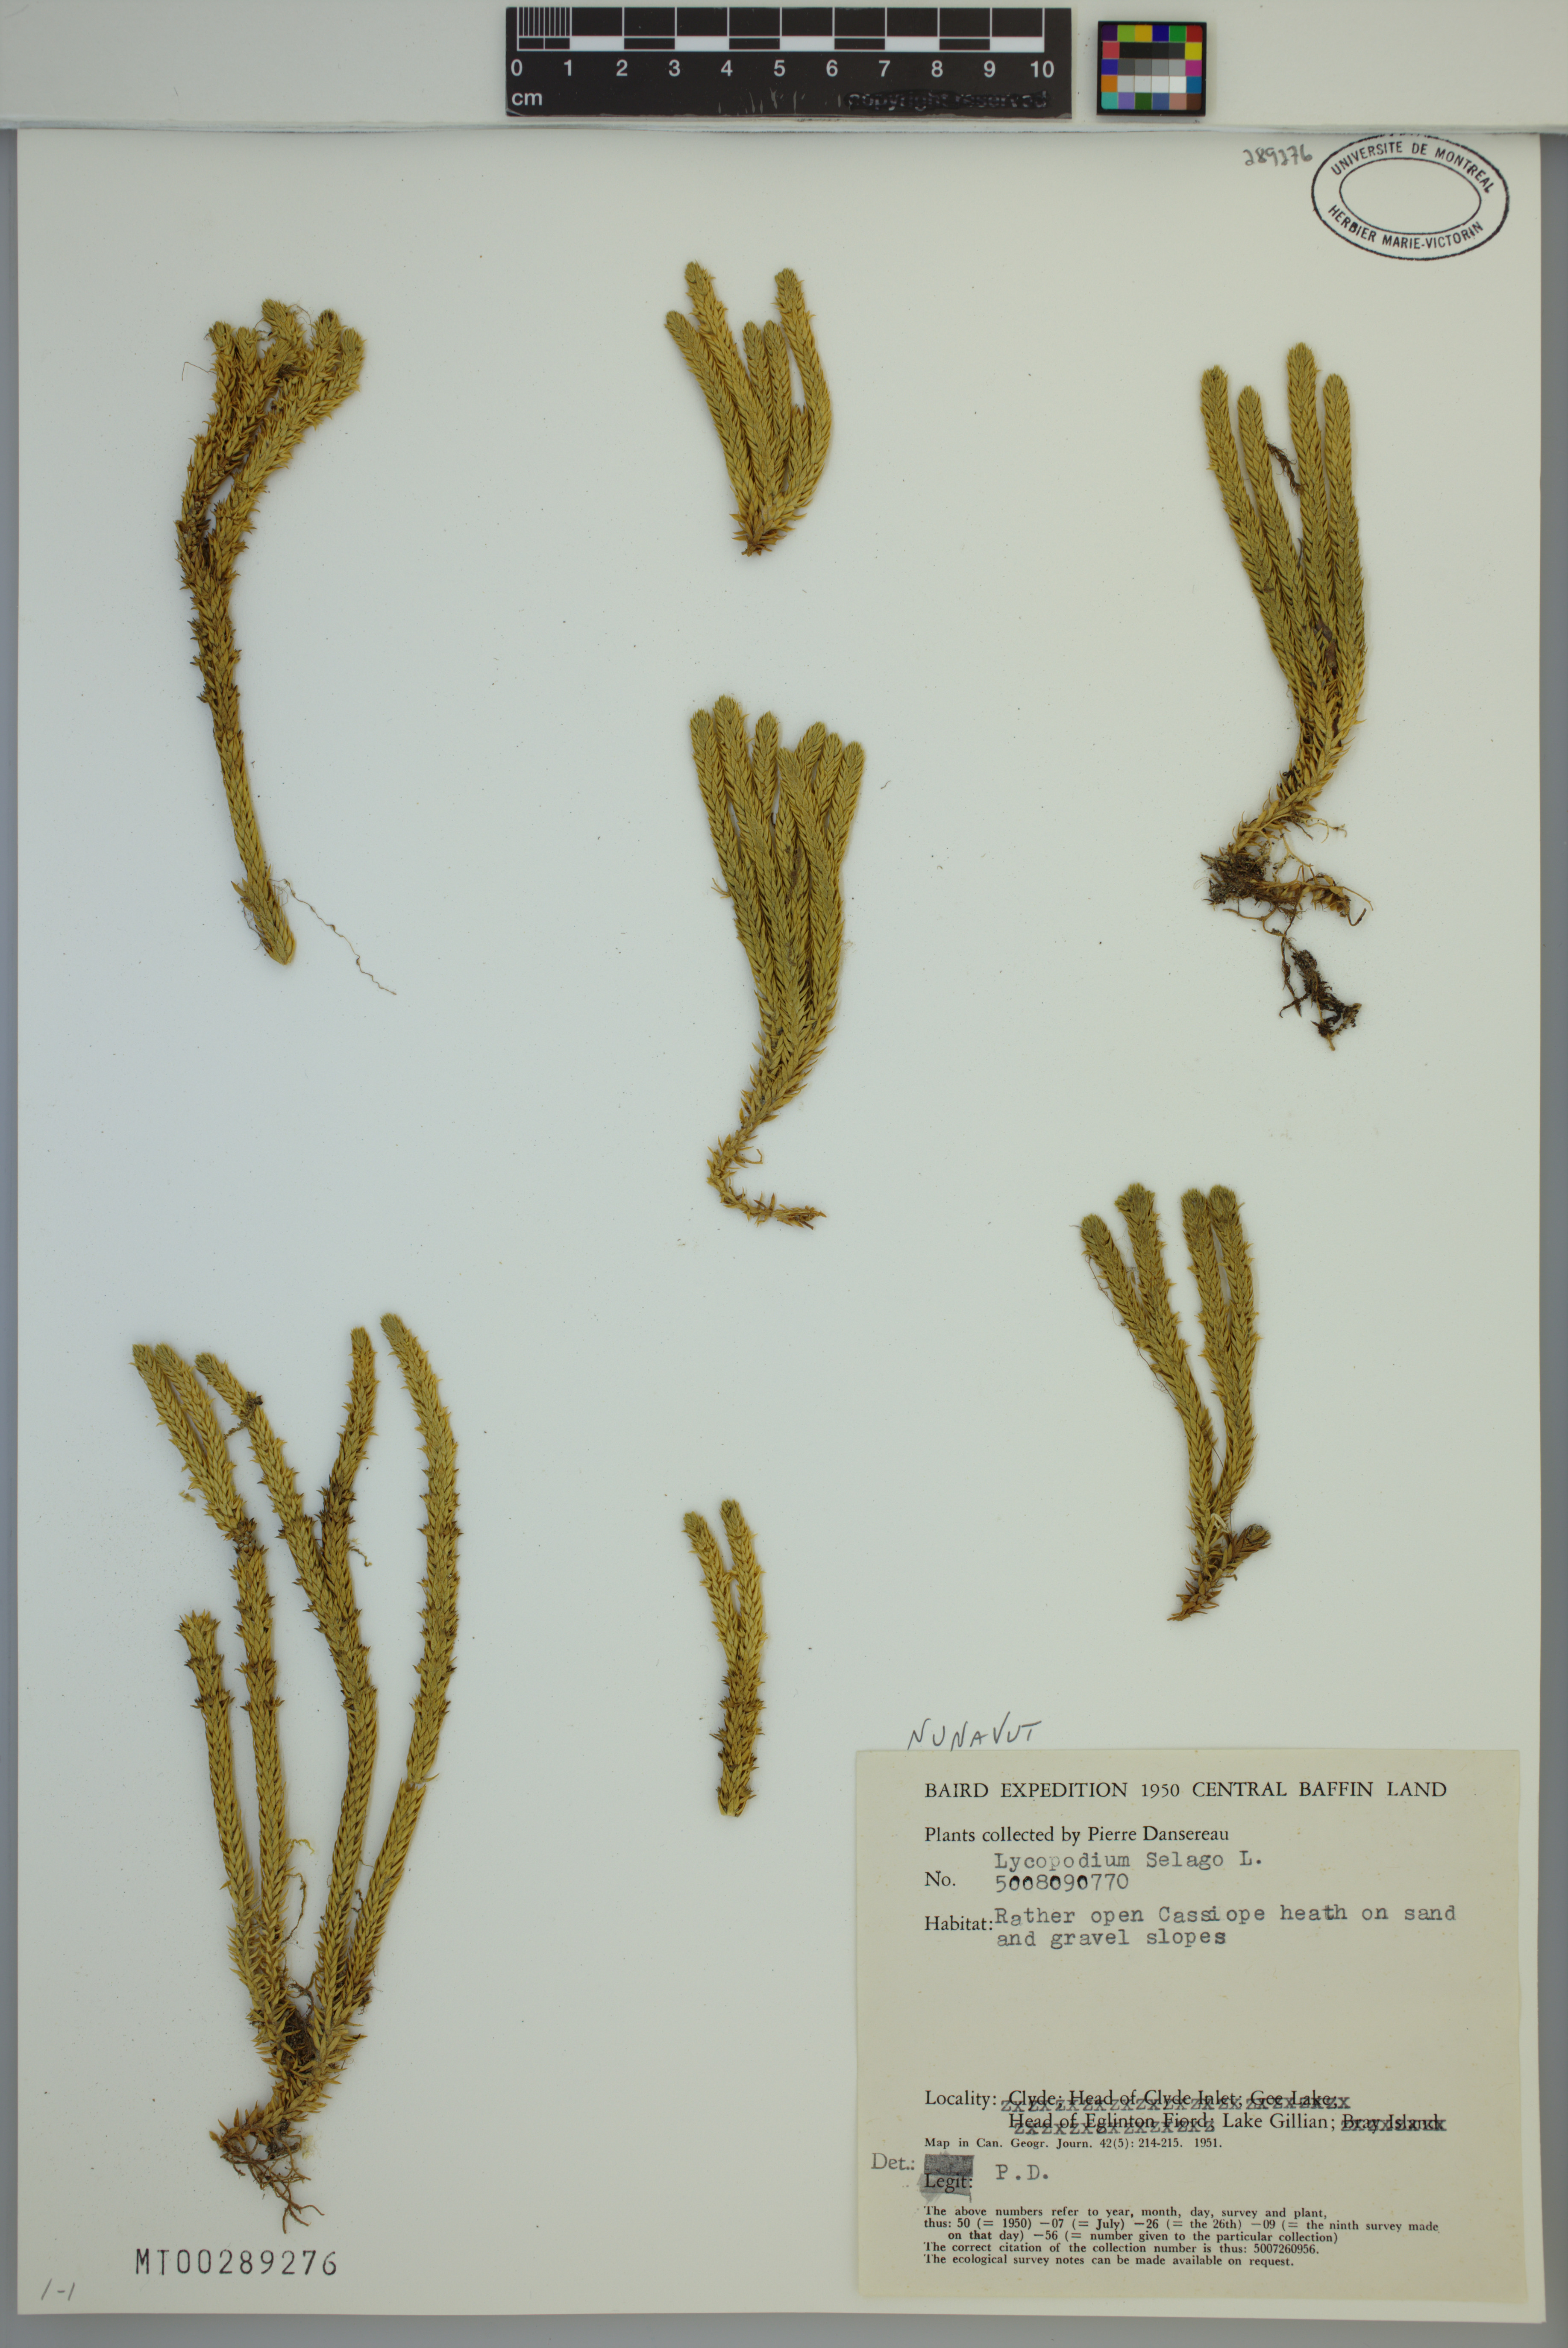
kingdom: Plantae
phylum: Tracheophyta
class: Lycopodiopsida
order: Lycopodiales
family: Lycopodiaceae
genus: Huperzia
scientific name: Huperzia selago
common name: Northern firmoss
